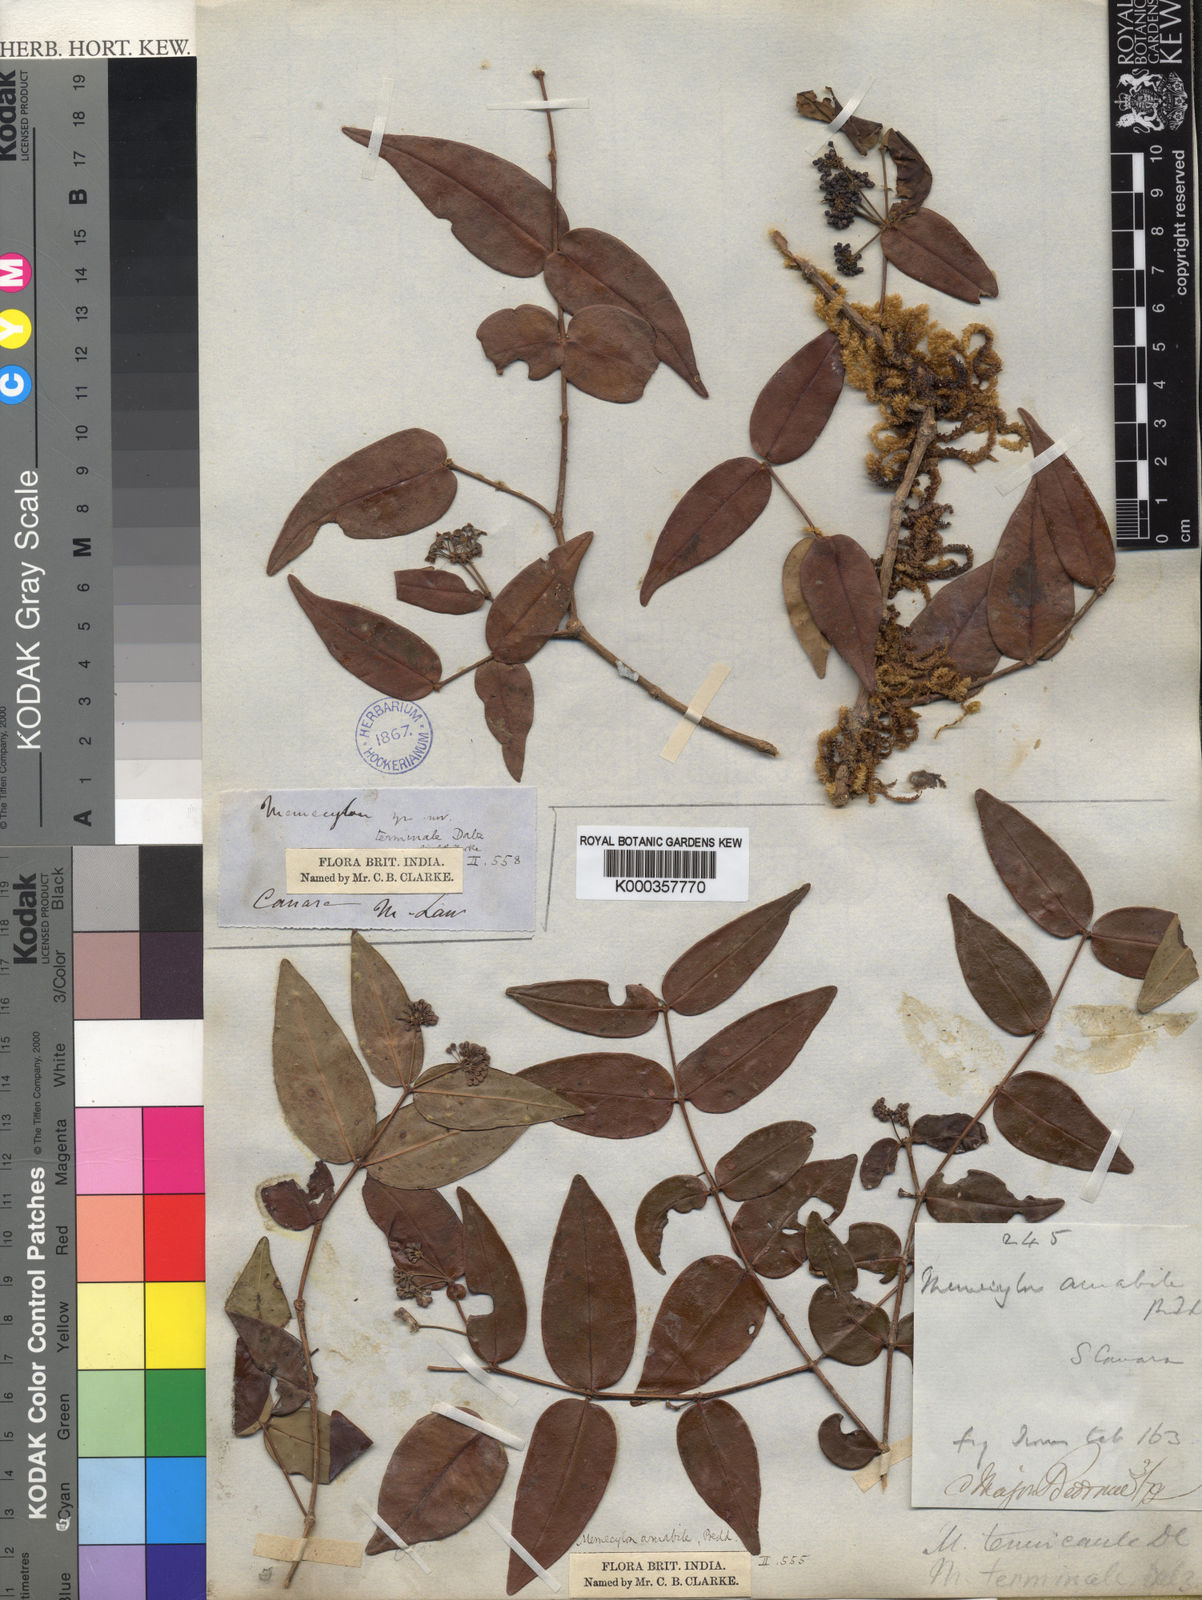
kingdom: Plantae
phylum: Tracheophyta
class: Magnoliopsida
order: Myrtales
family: Melastomataceae
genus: Memecylon
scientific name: Memecylon terminale
